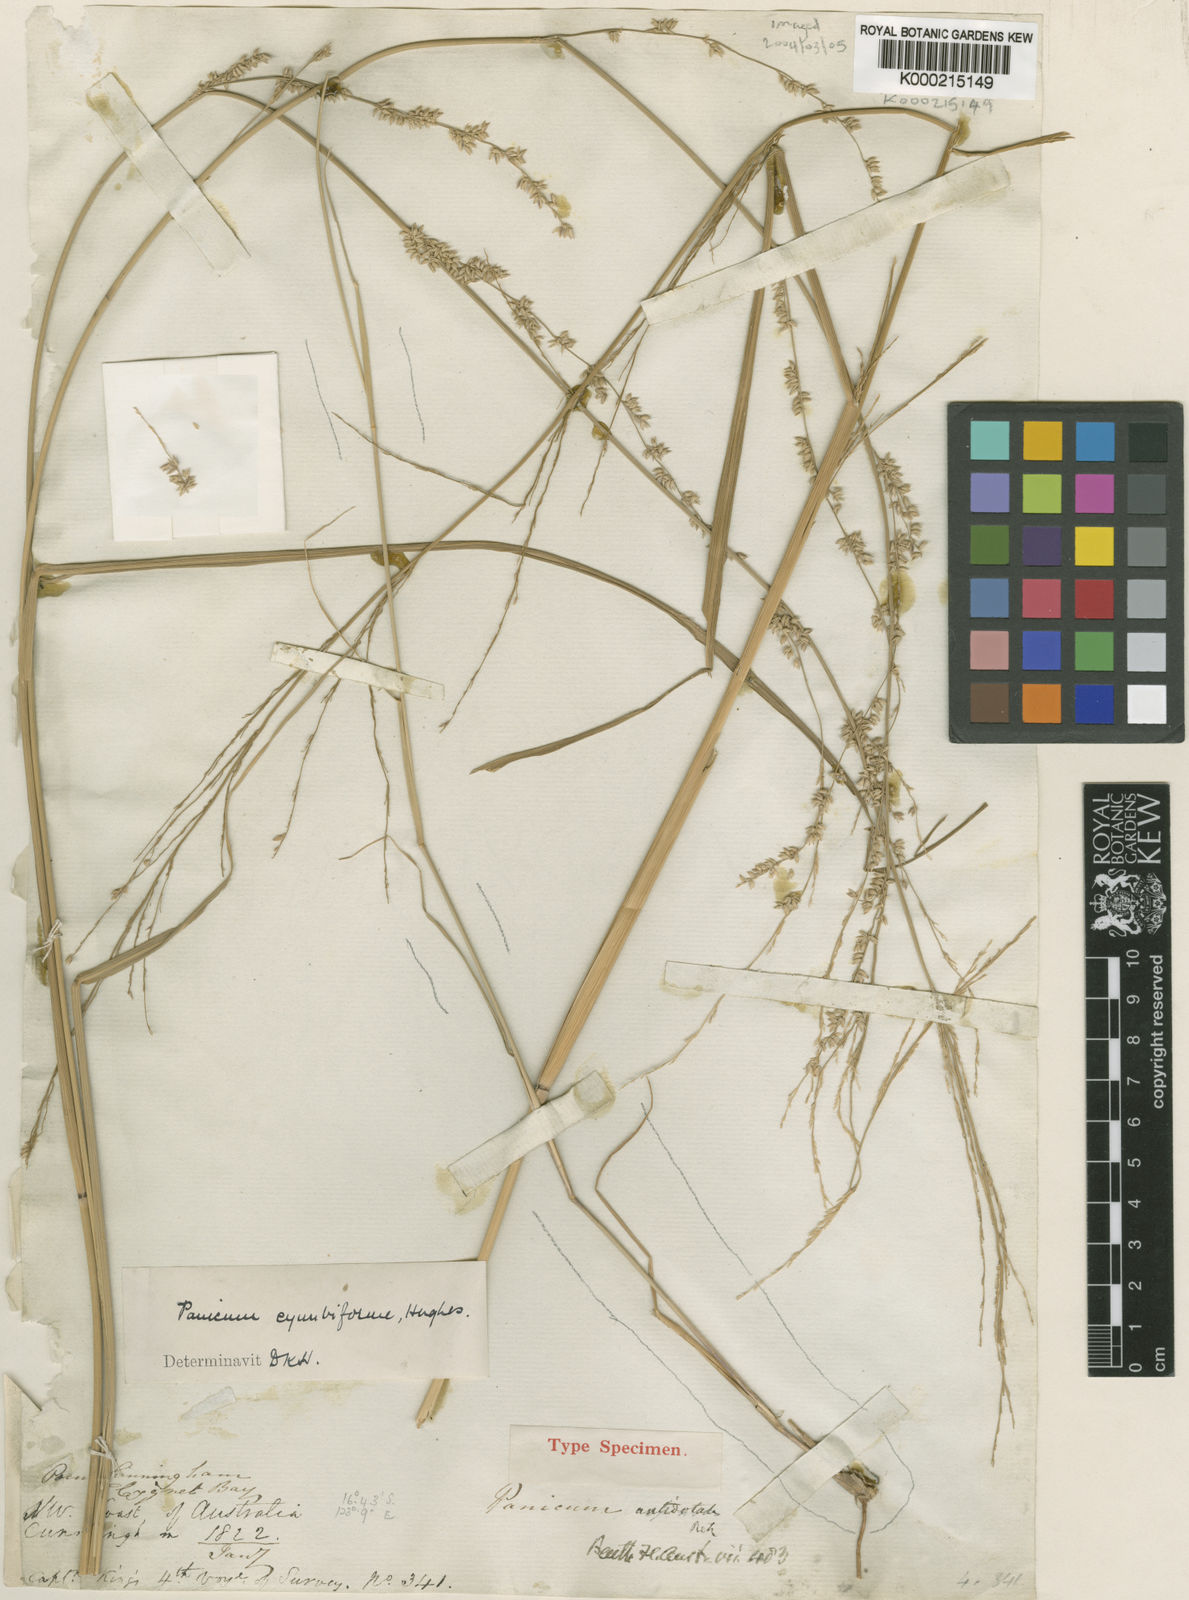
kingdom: Plantae
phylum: Tracheophyta
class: Liliopsida
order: Poales
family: Poaceae
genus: Whiteochloa
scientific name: Whiteochloa cymbiformis
